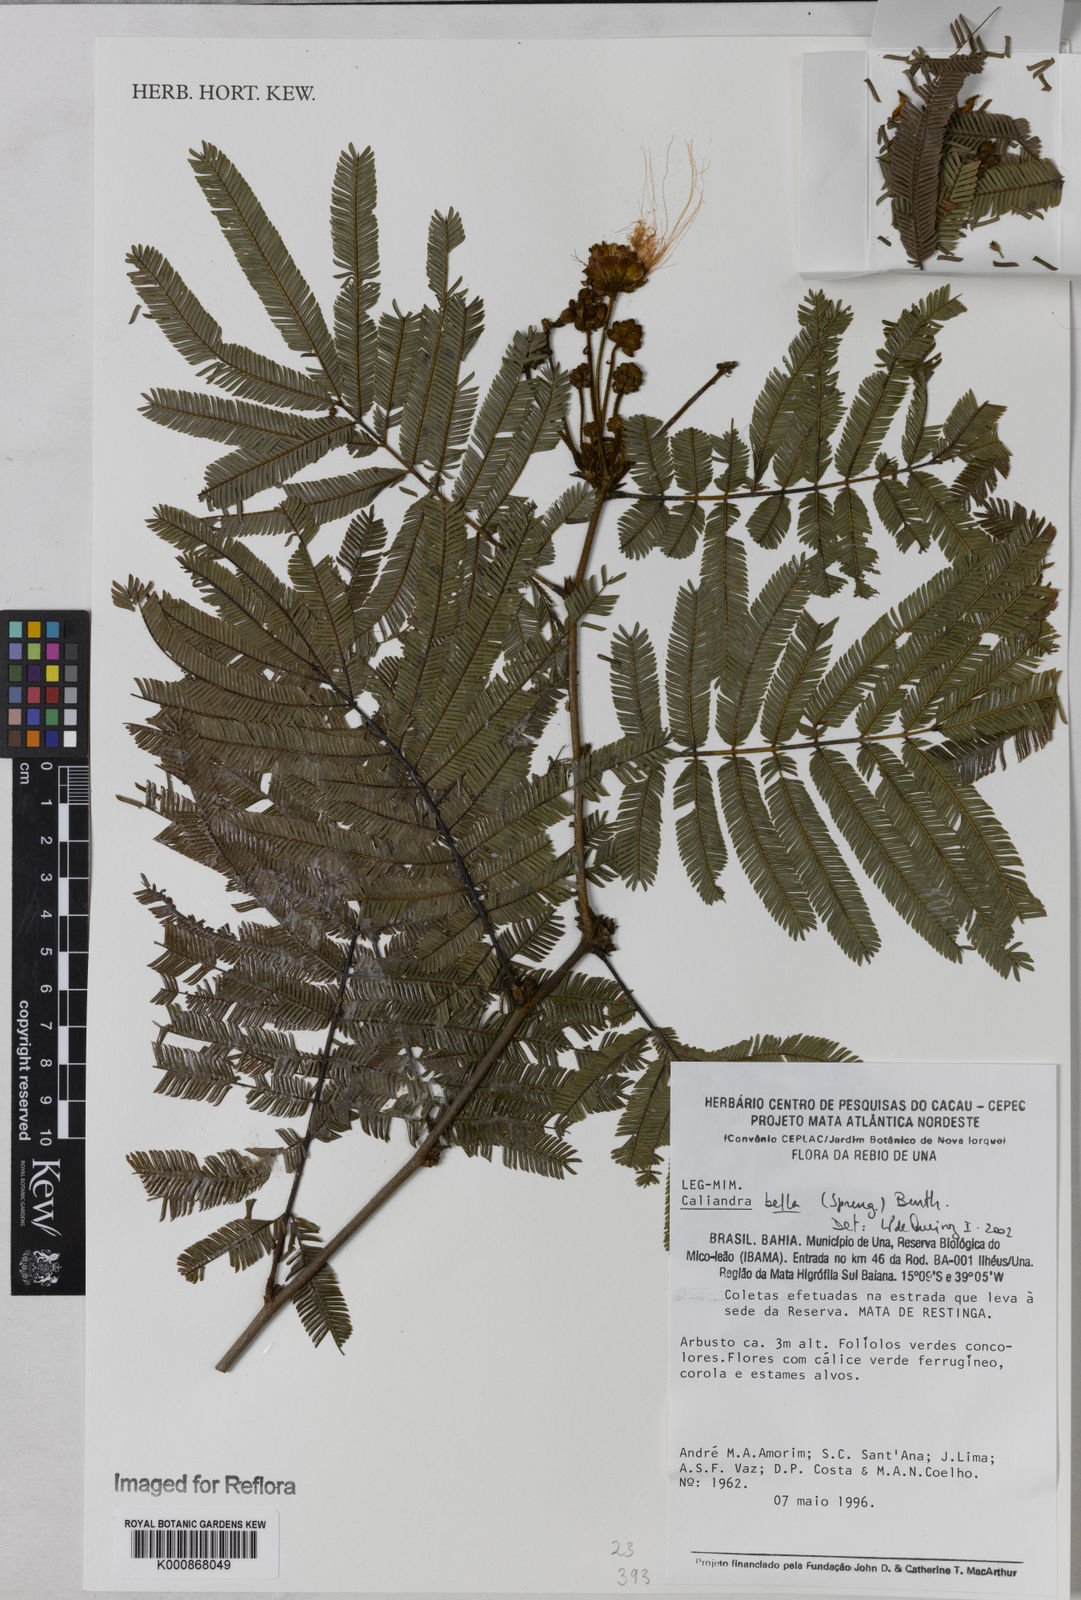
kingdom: Plantae
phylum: Tracheophyta
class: Magnoliopsida
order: Fabales
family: Fabaceae
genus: Calliandra
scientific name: Calliandra bella
